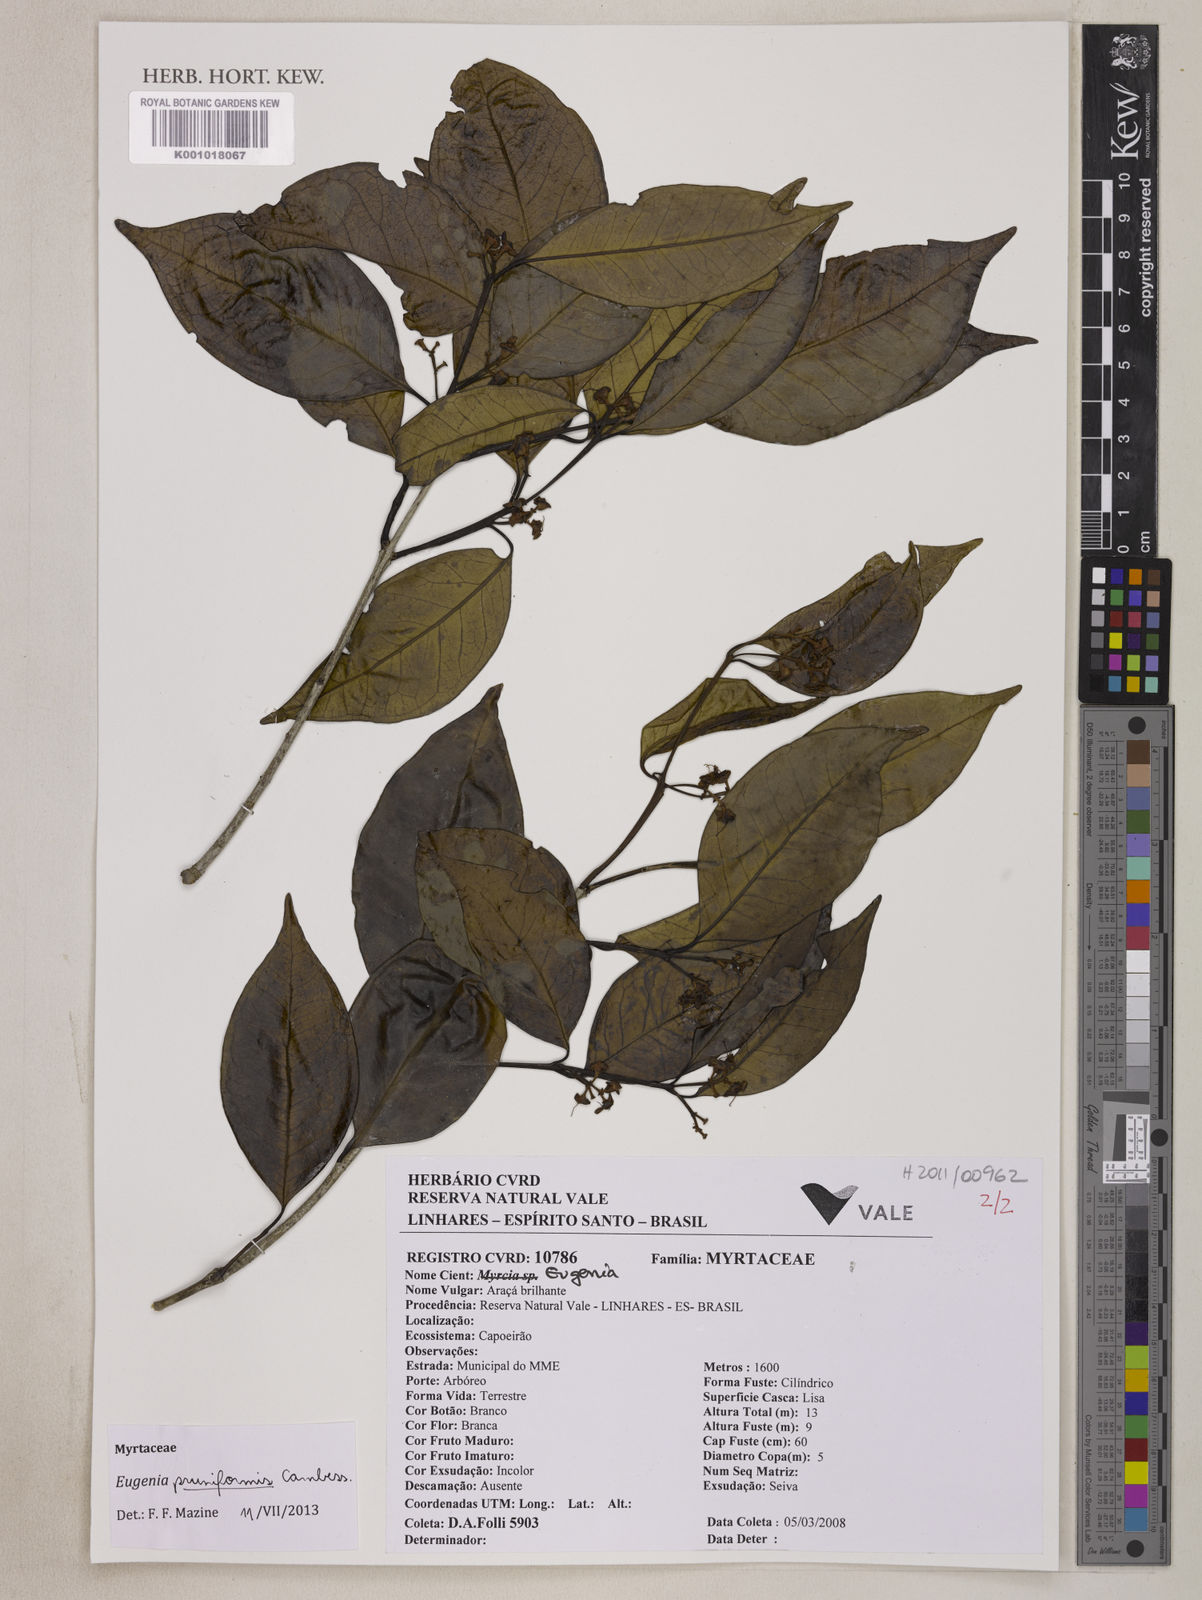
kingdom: Plantae
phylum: Tracheophyta
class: Magnoliopsida
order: Myrtales
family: Myrtaceae
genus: Eugenia
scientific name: Eugenia pruniformis
